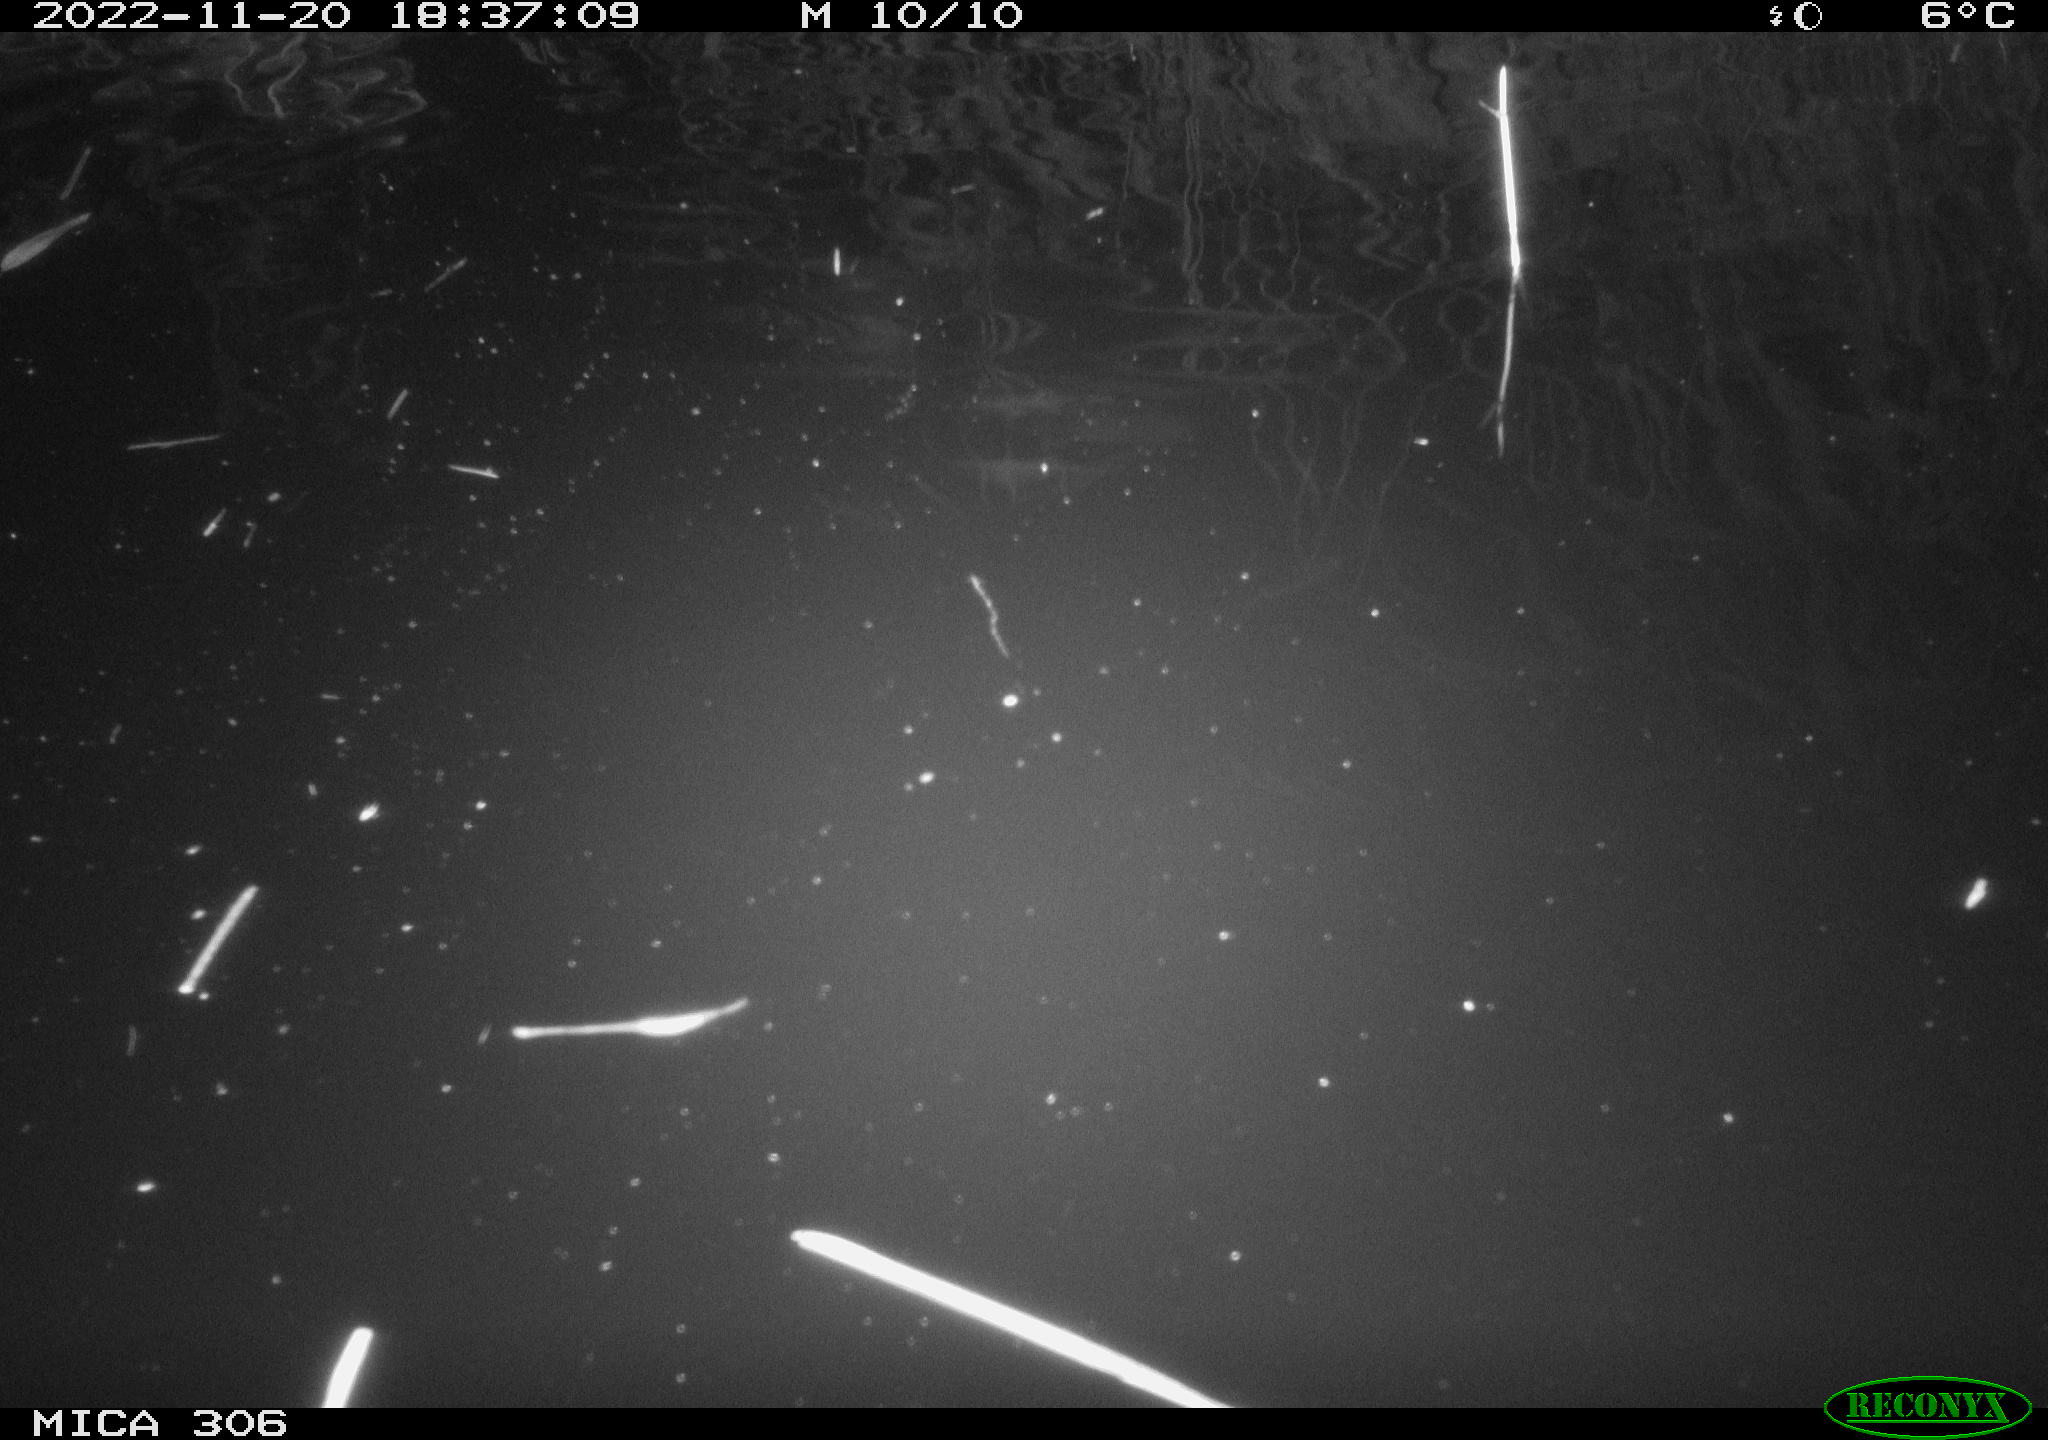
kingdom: Animalia
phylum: Chordata
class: Mammalia
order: Rodentia
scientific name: Rodentia
